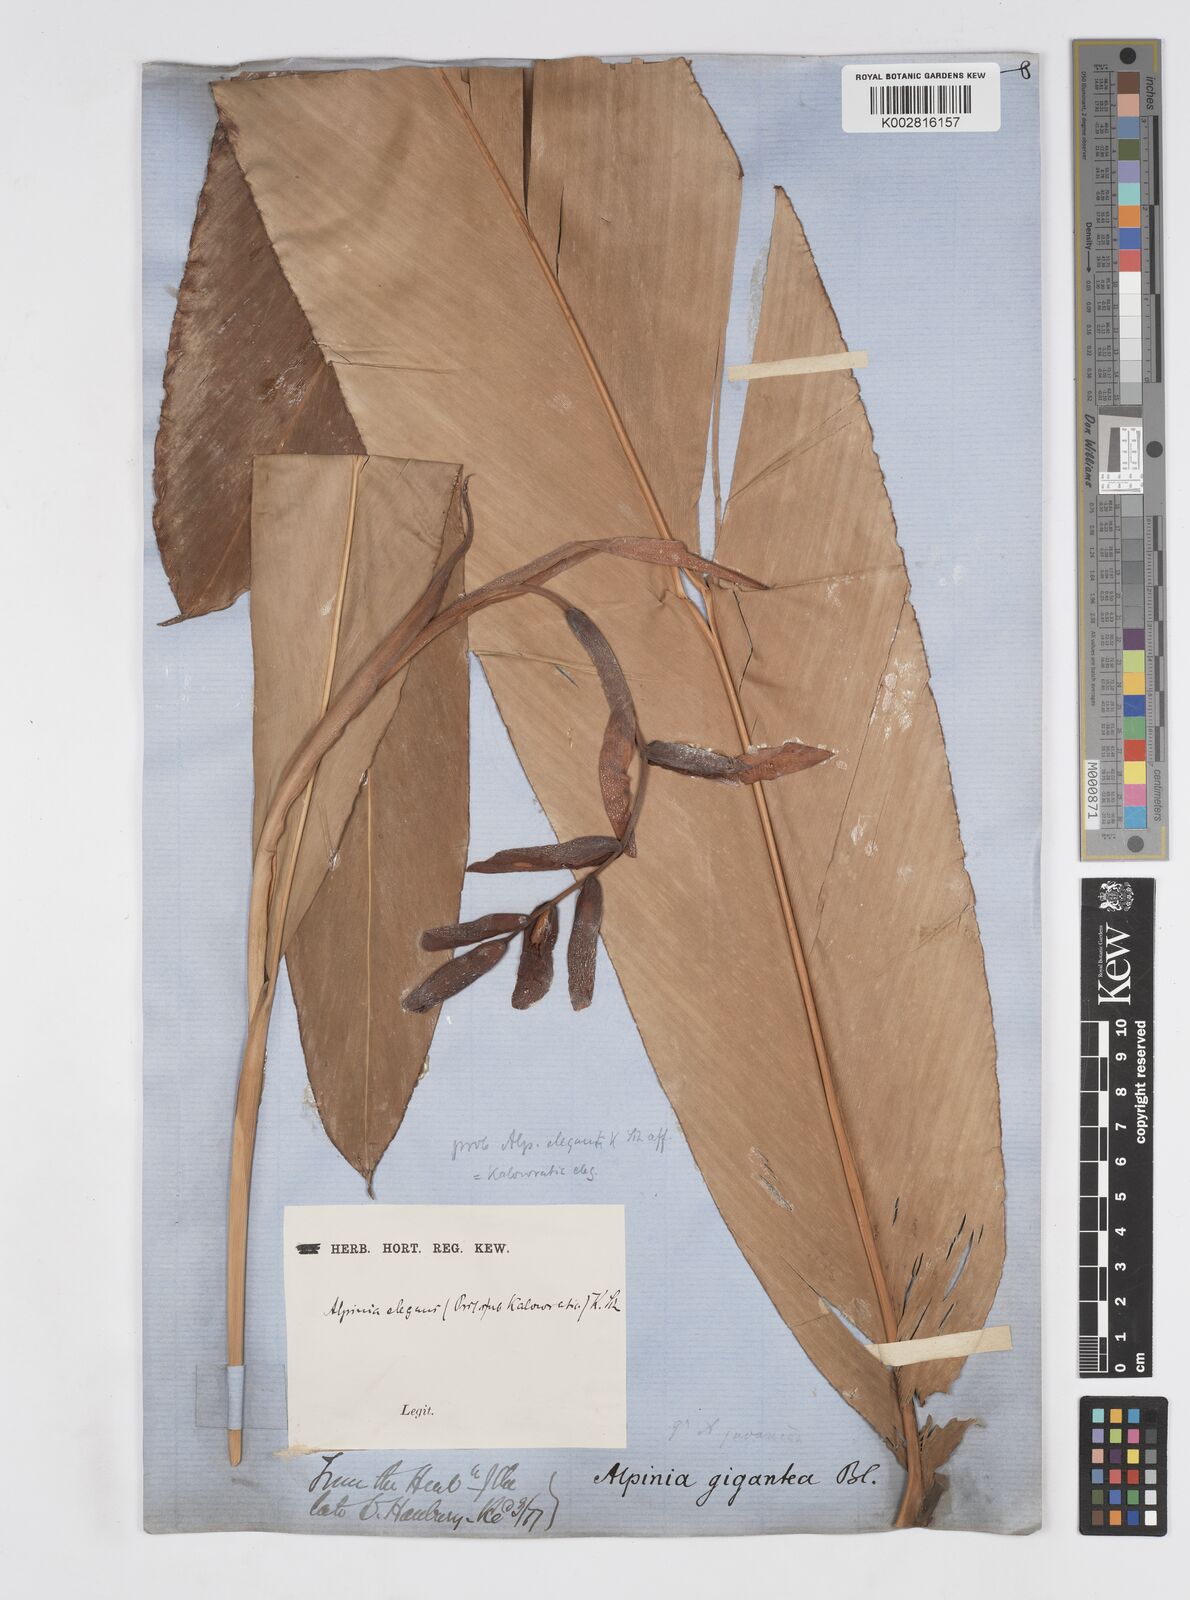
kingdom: Plantae
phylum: Tracheophyta
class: Liliopsida
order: Zingiberales
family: Zingiberaceae
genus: Alpinia
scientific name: Alpinia elegans
